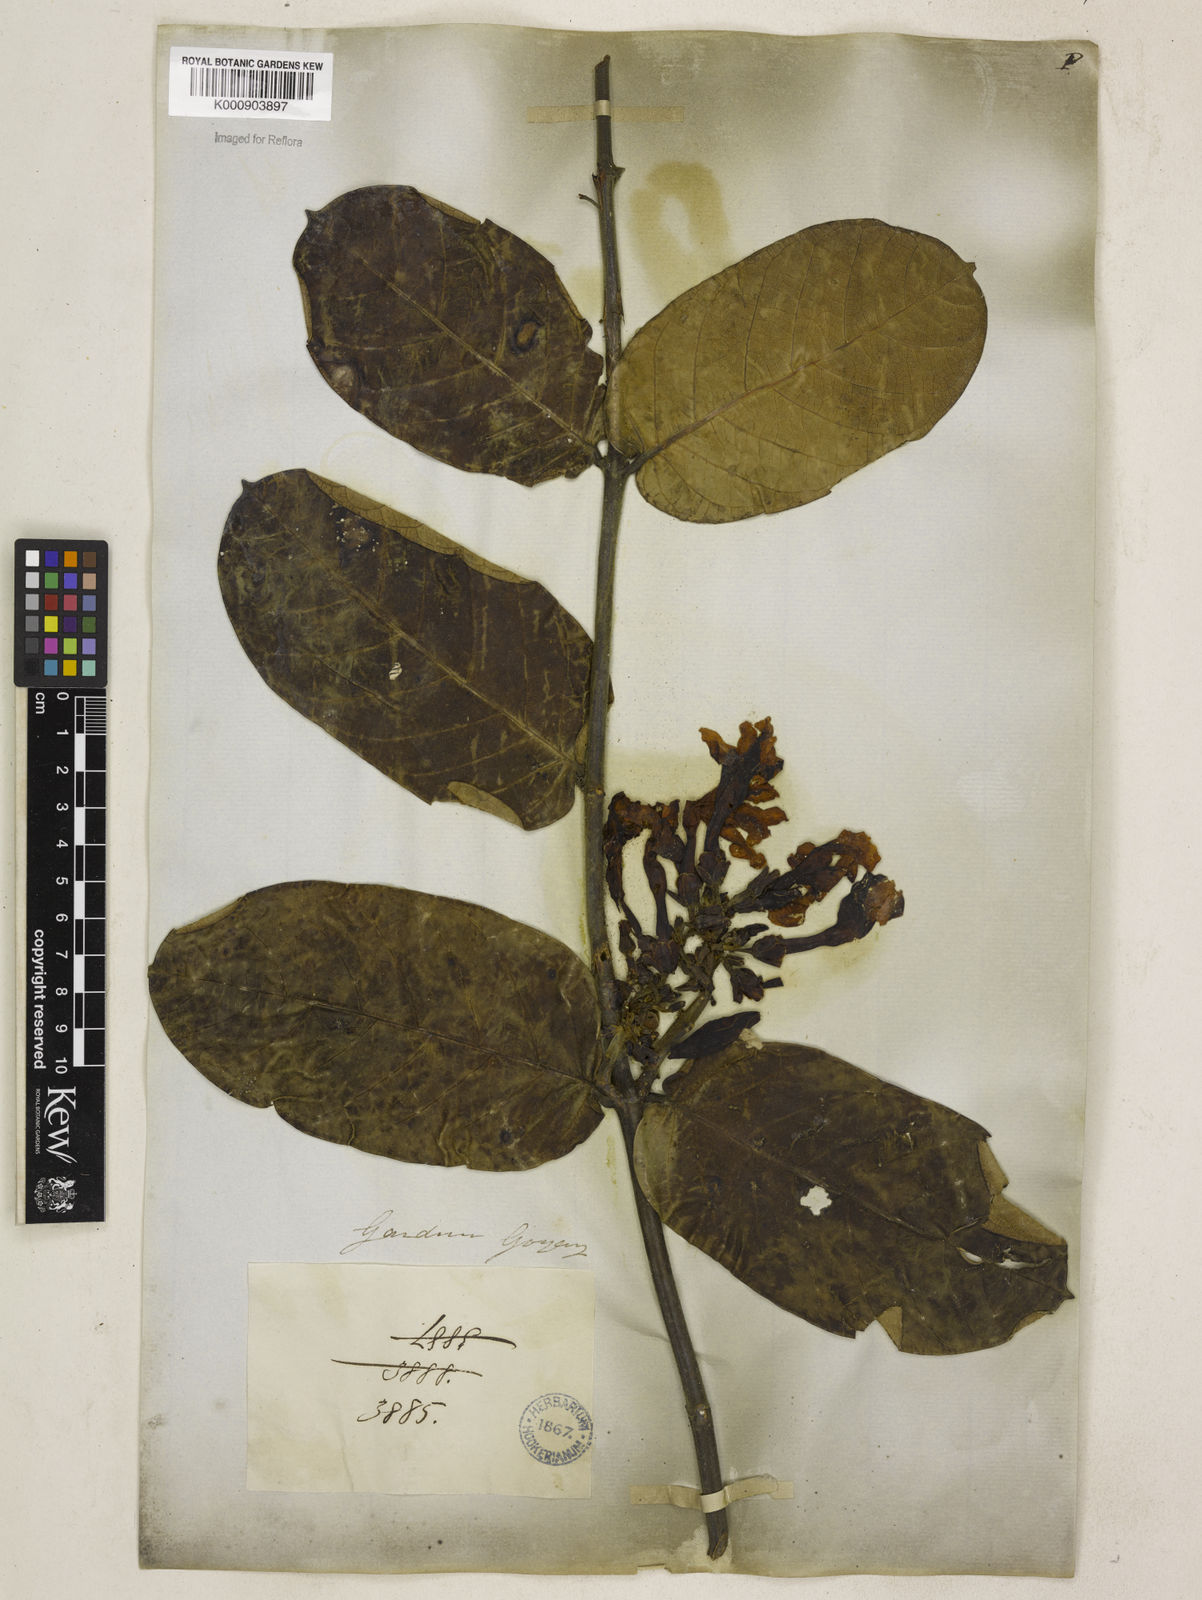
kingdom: Plantae
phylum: Tracheophyta
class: Magnoliopsida
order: Gentianales
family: Apocynaceae
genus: Odontadenia
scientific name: Odontadenia lutea
